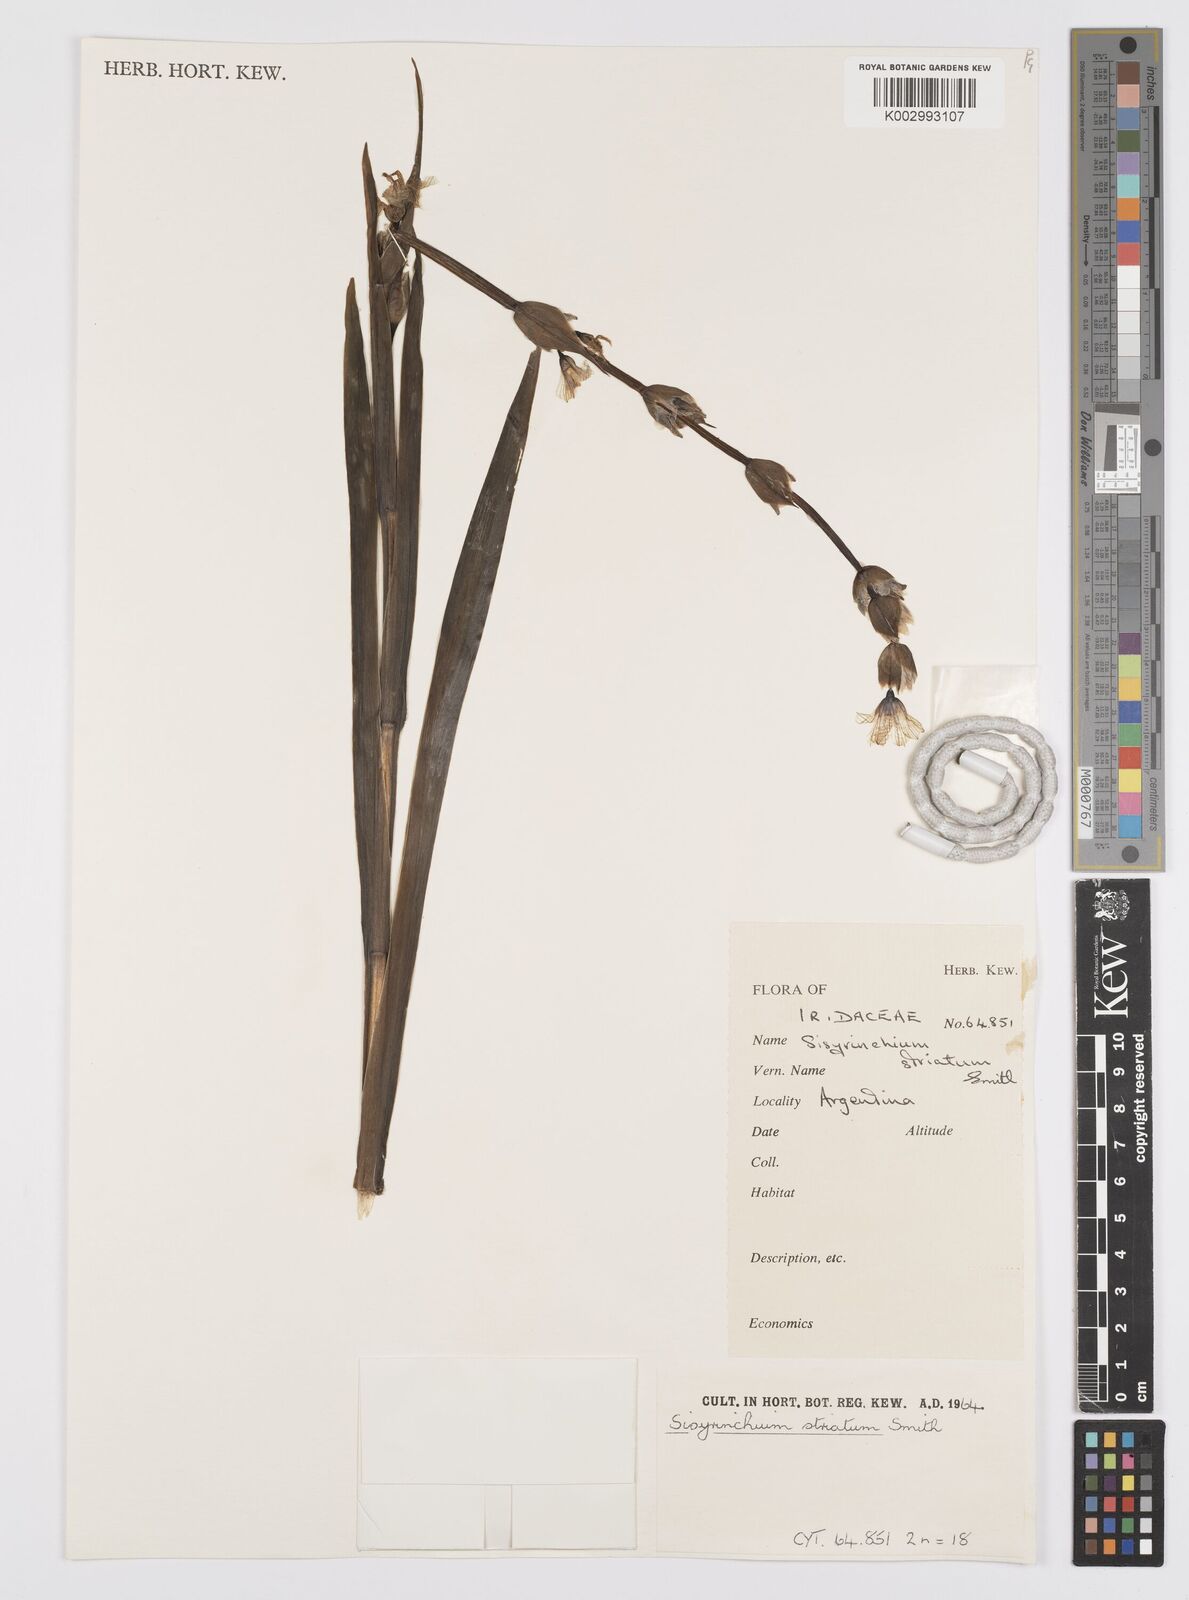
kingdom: Plantae
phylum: Tracheophyta
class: Liliopsida
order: Asparagales
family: Iridaceae
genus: Sisyrinchium
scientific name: Sisyrinchium striatum
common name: Pale yellow-eyed-grass
